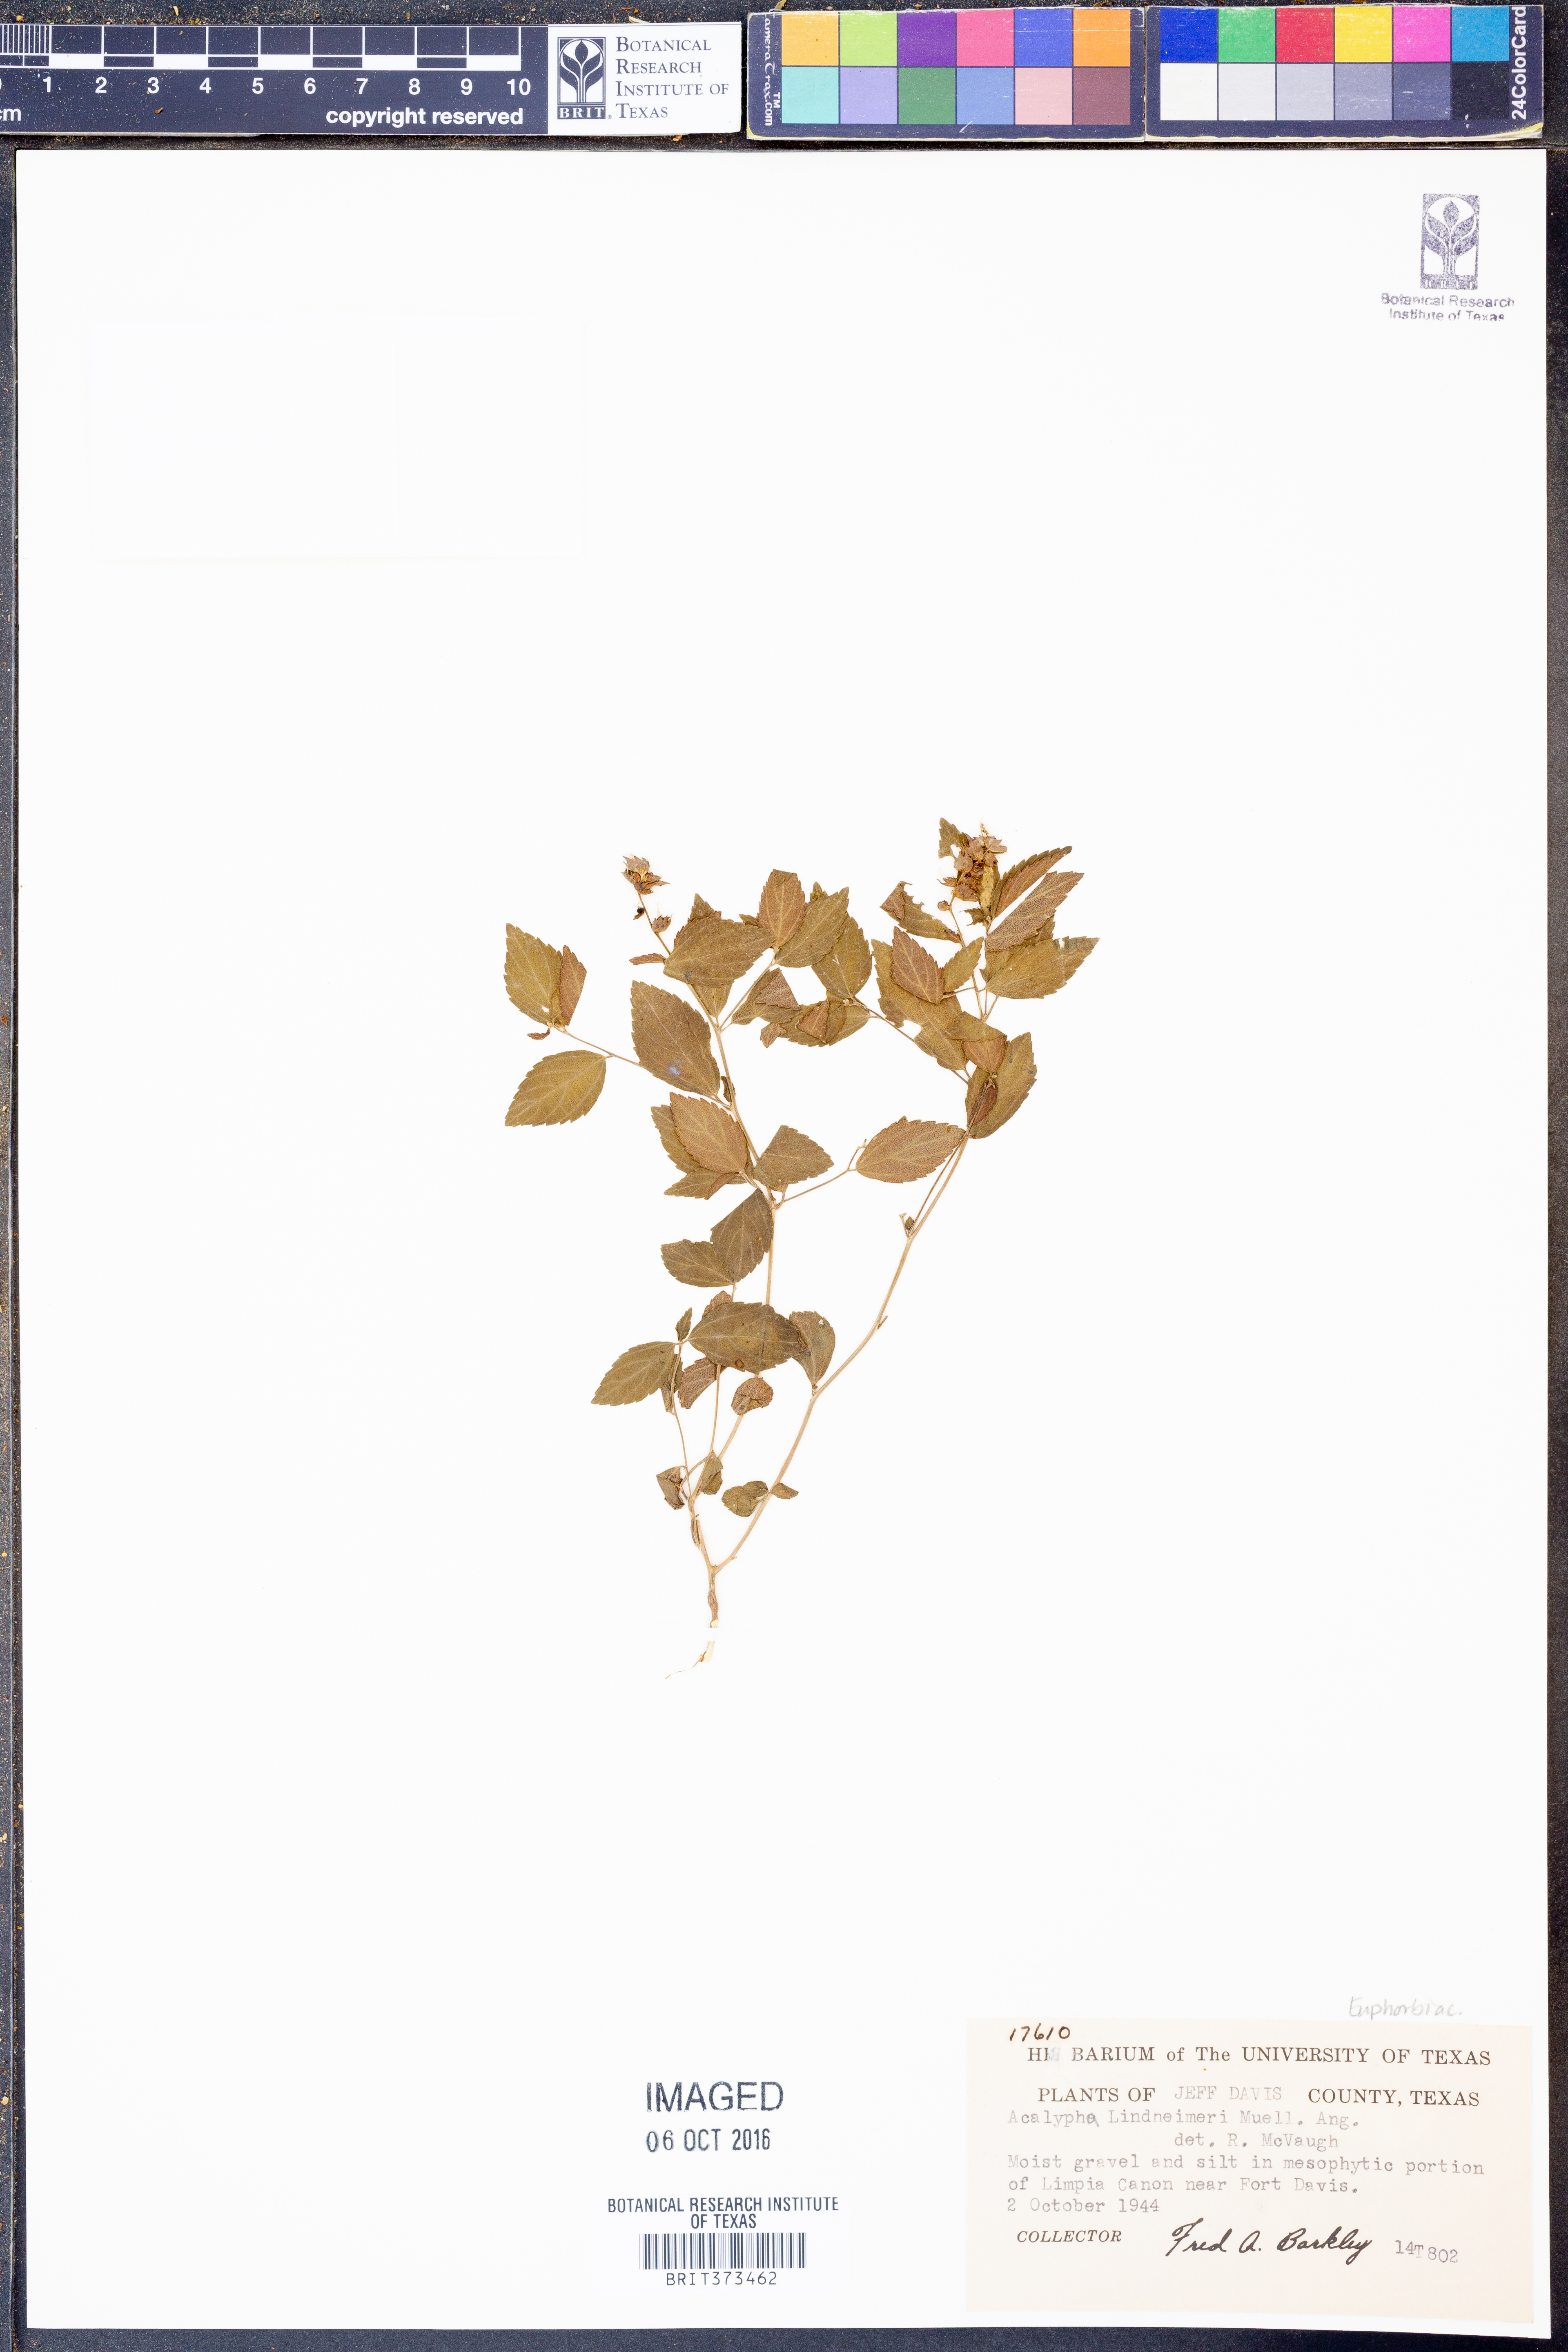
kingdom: Plantae
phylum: Tracheophyta
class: Magnoliopsida
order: Malpighiales
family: Euphorbiaceae
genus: Acalypha
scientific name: Acalypha phleoides
